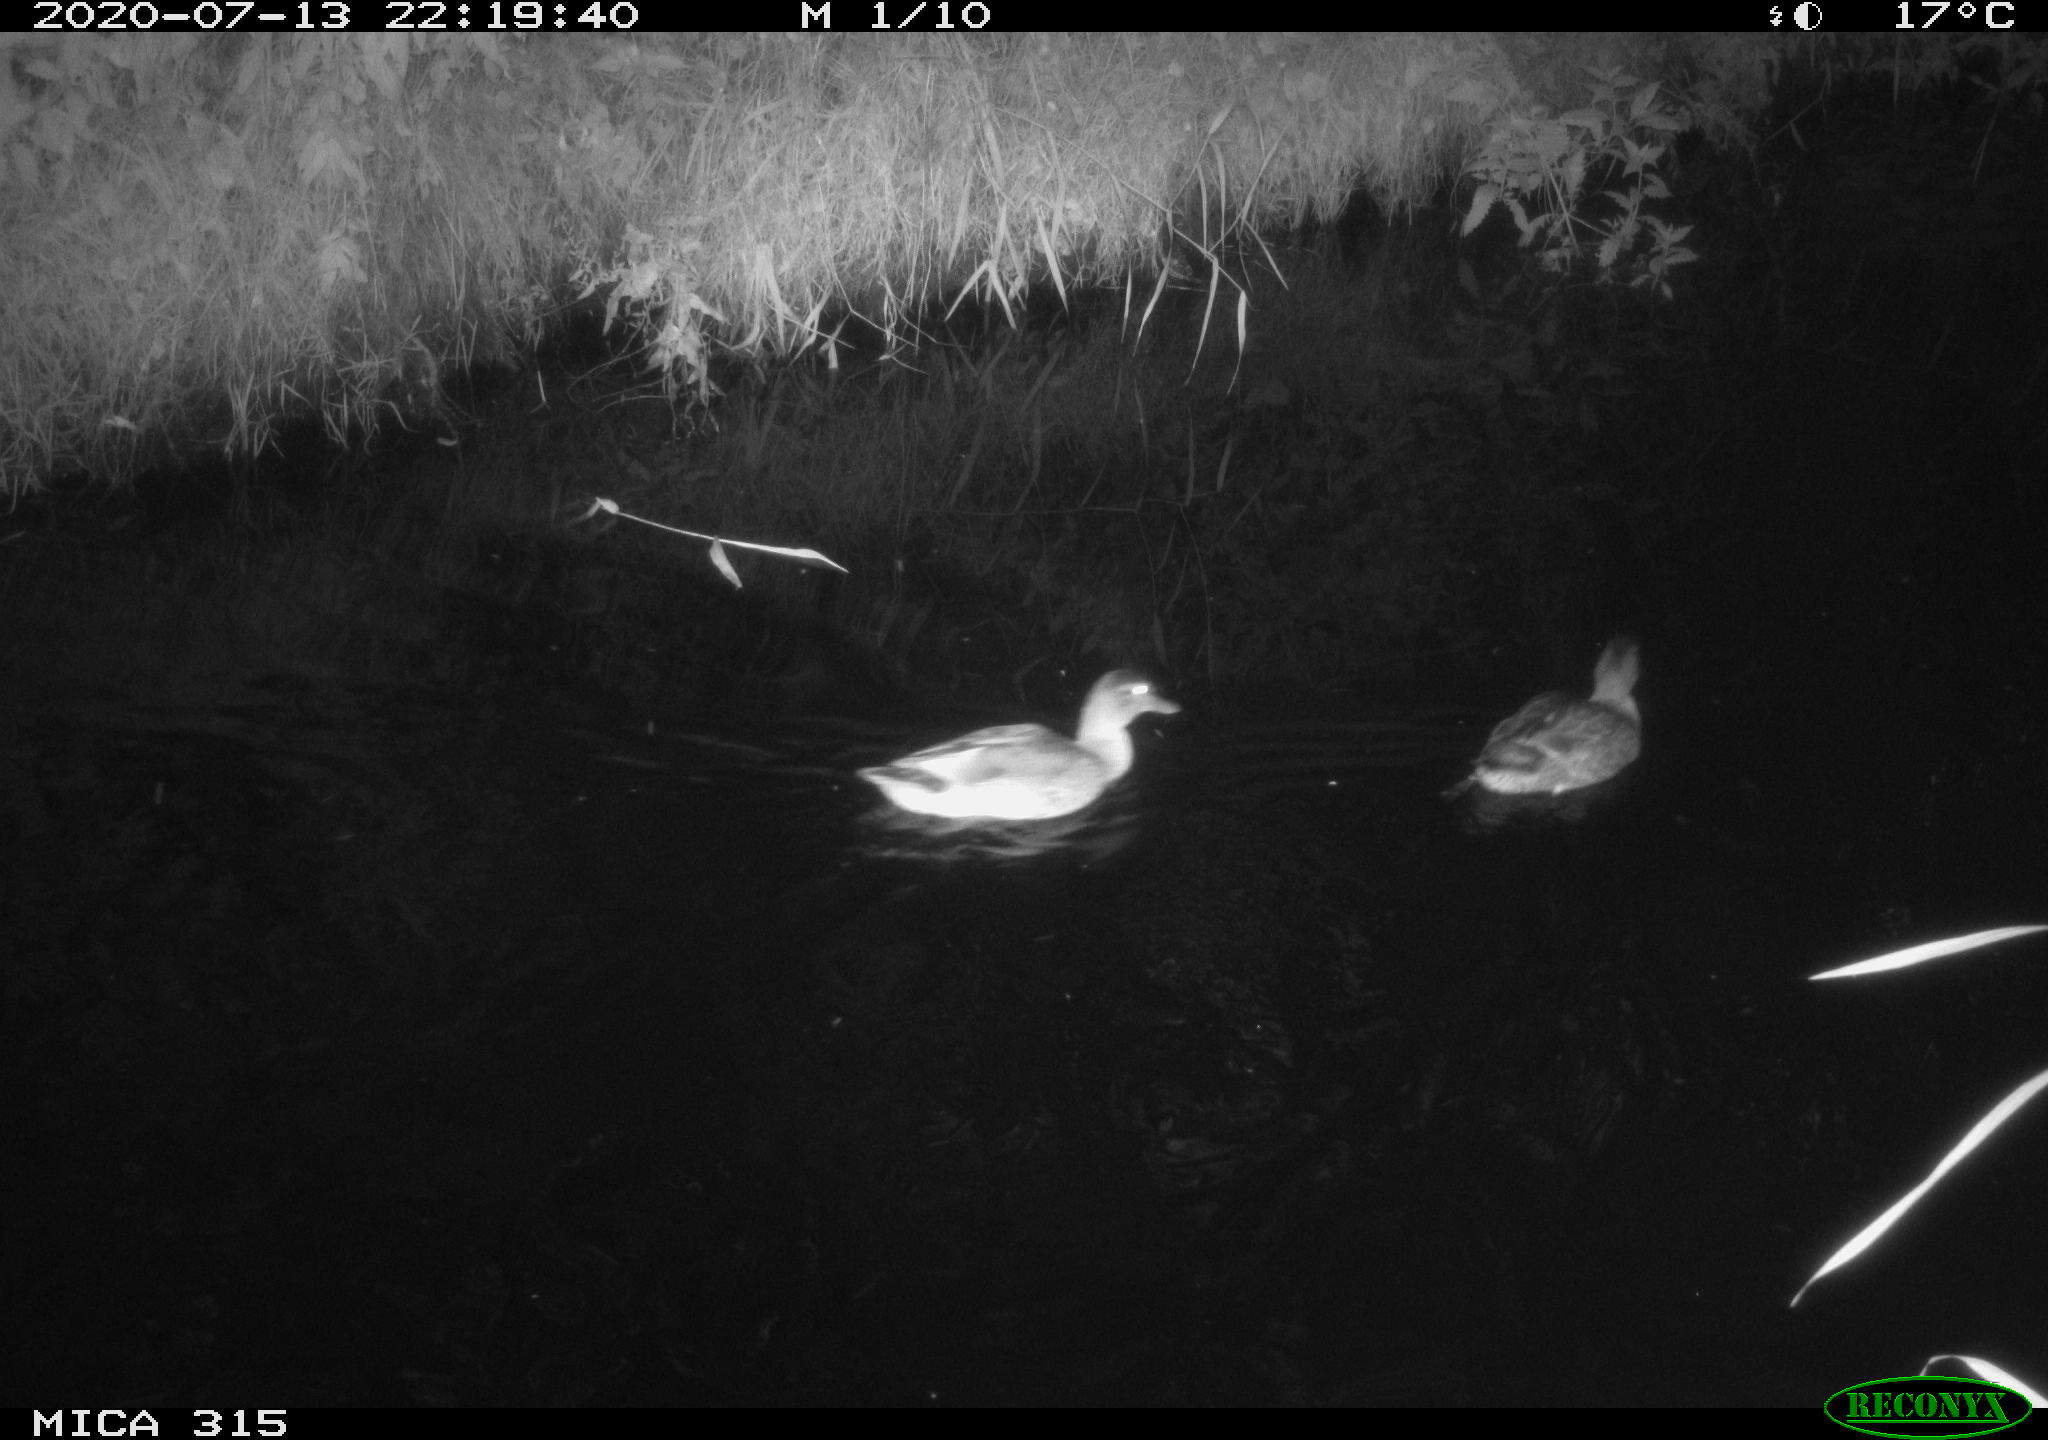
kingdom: Animalia
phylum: Chordata
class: Aves
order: Anseriformes
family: Anatidae
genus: Anas
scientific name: Anas platyrhynchos
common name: Mallard
